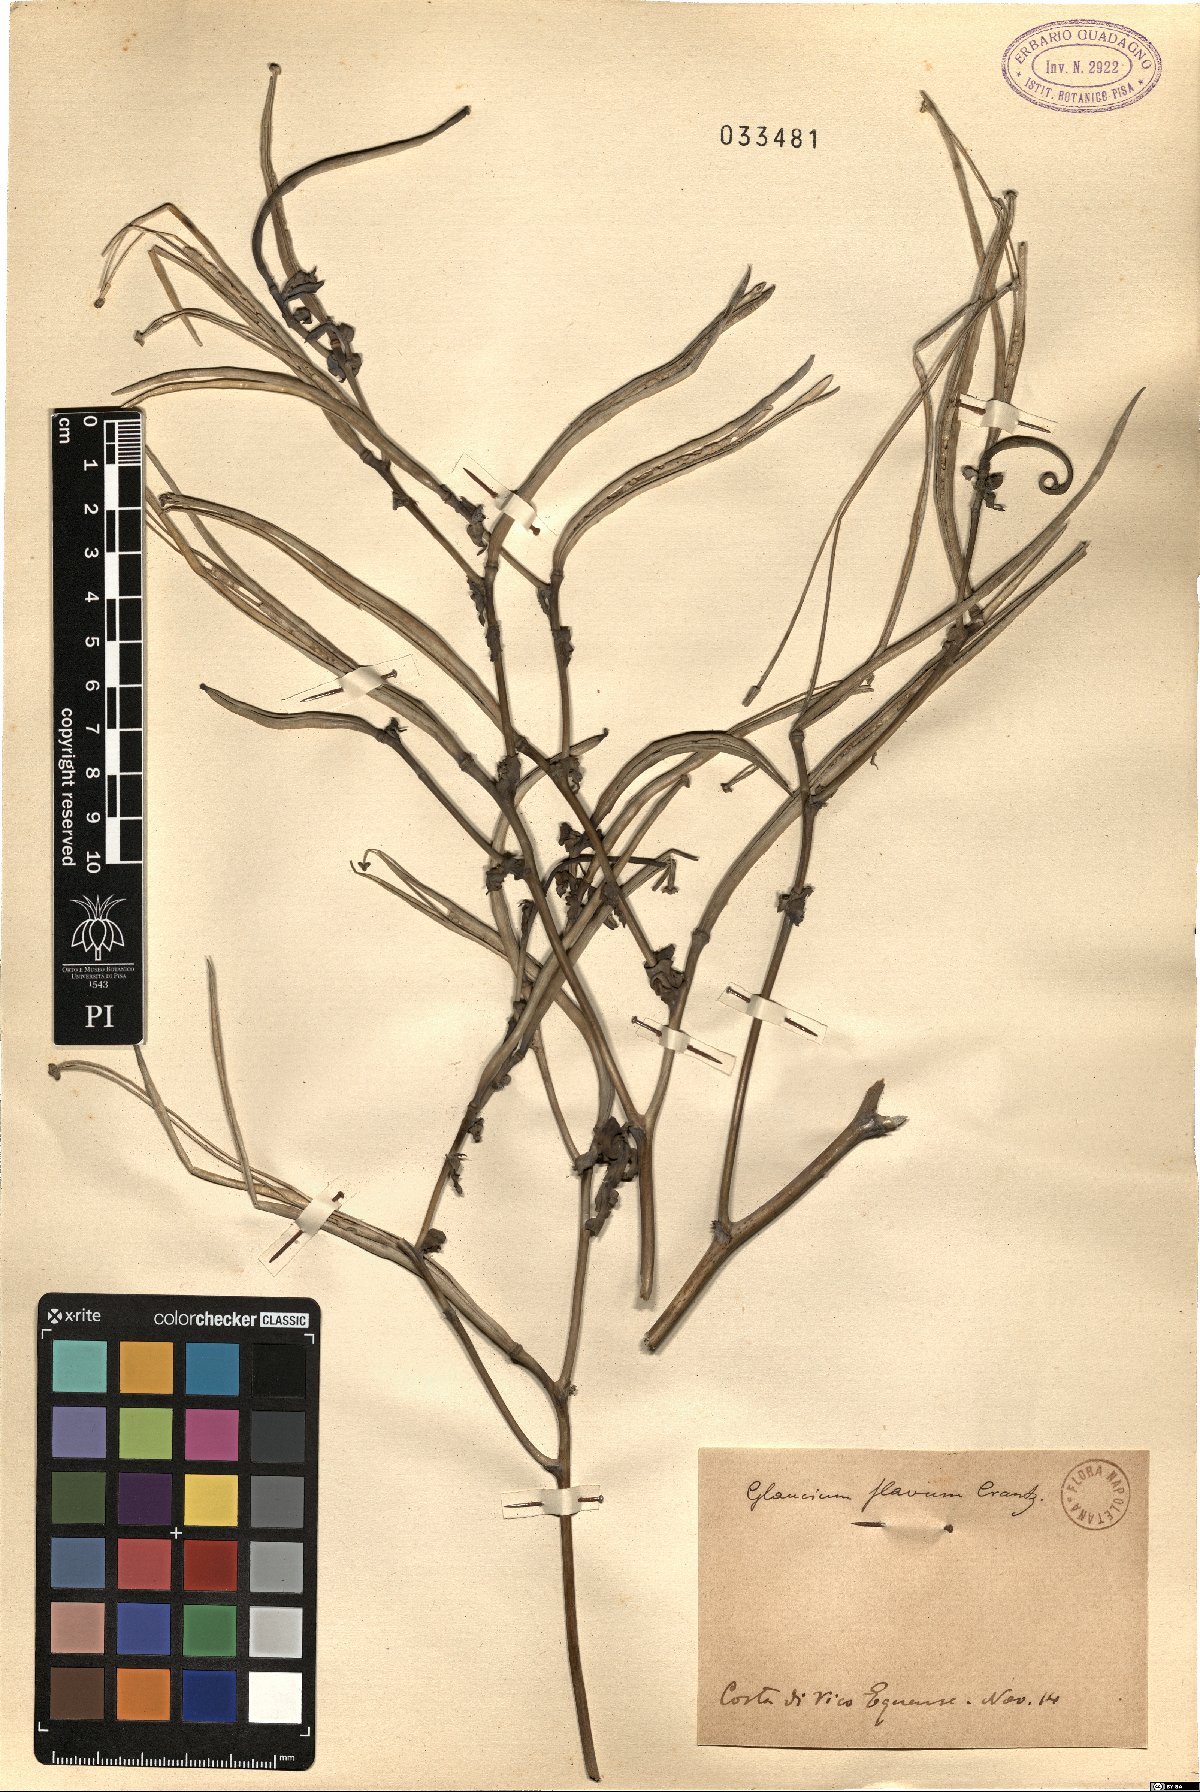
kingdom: Plantae
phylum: Tracheophyta
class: Magnoliopsida
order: Ranunculales
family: Papaveraceae
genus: Glaucium
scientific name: Glaucium flavum
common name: Yellow horned-poppy
